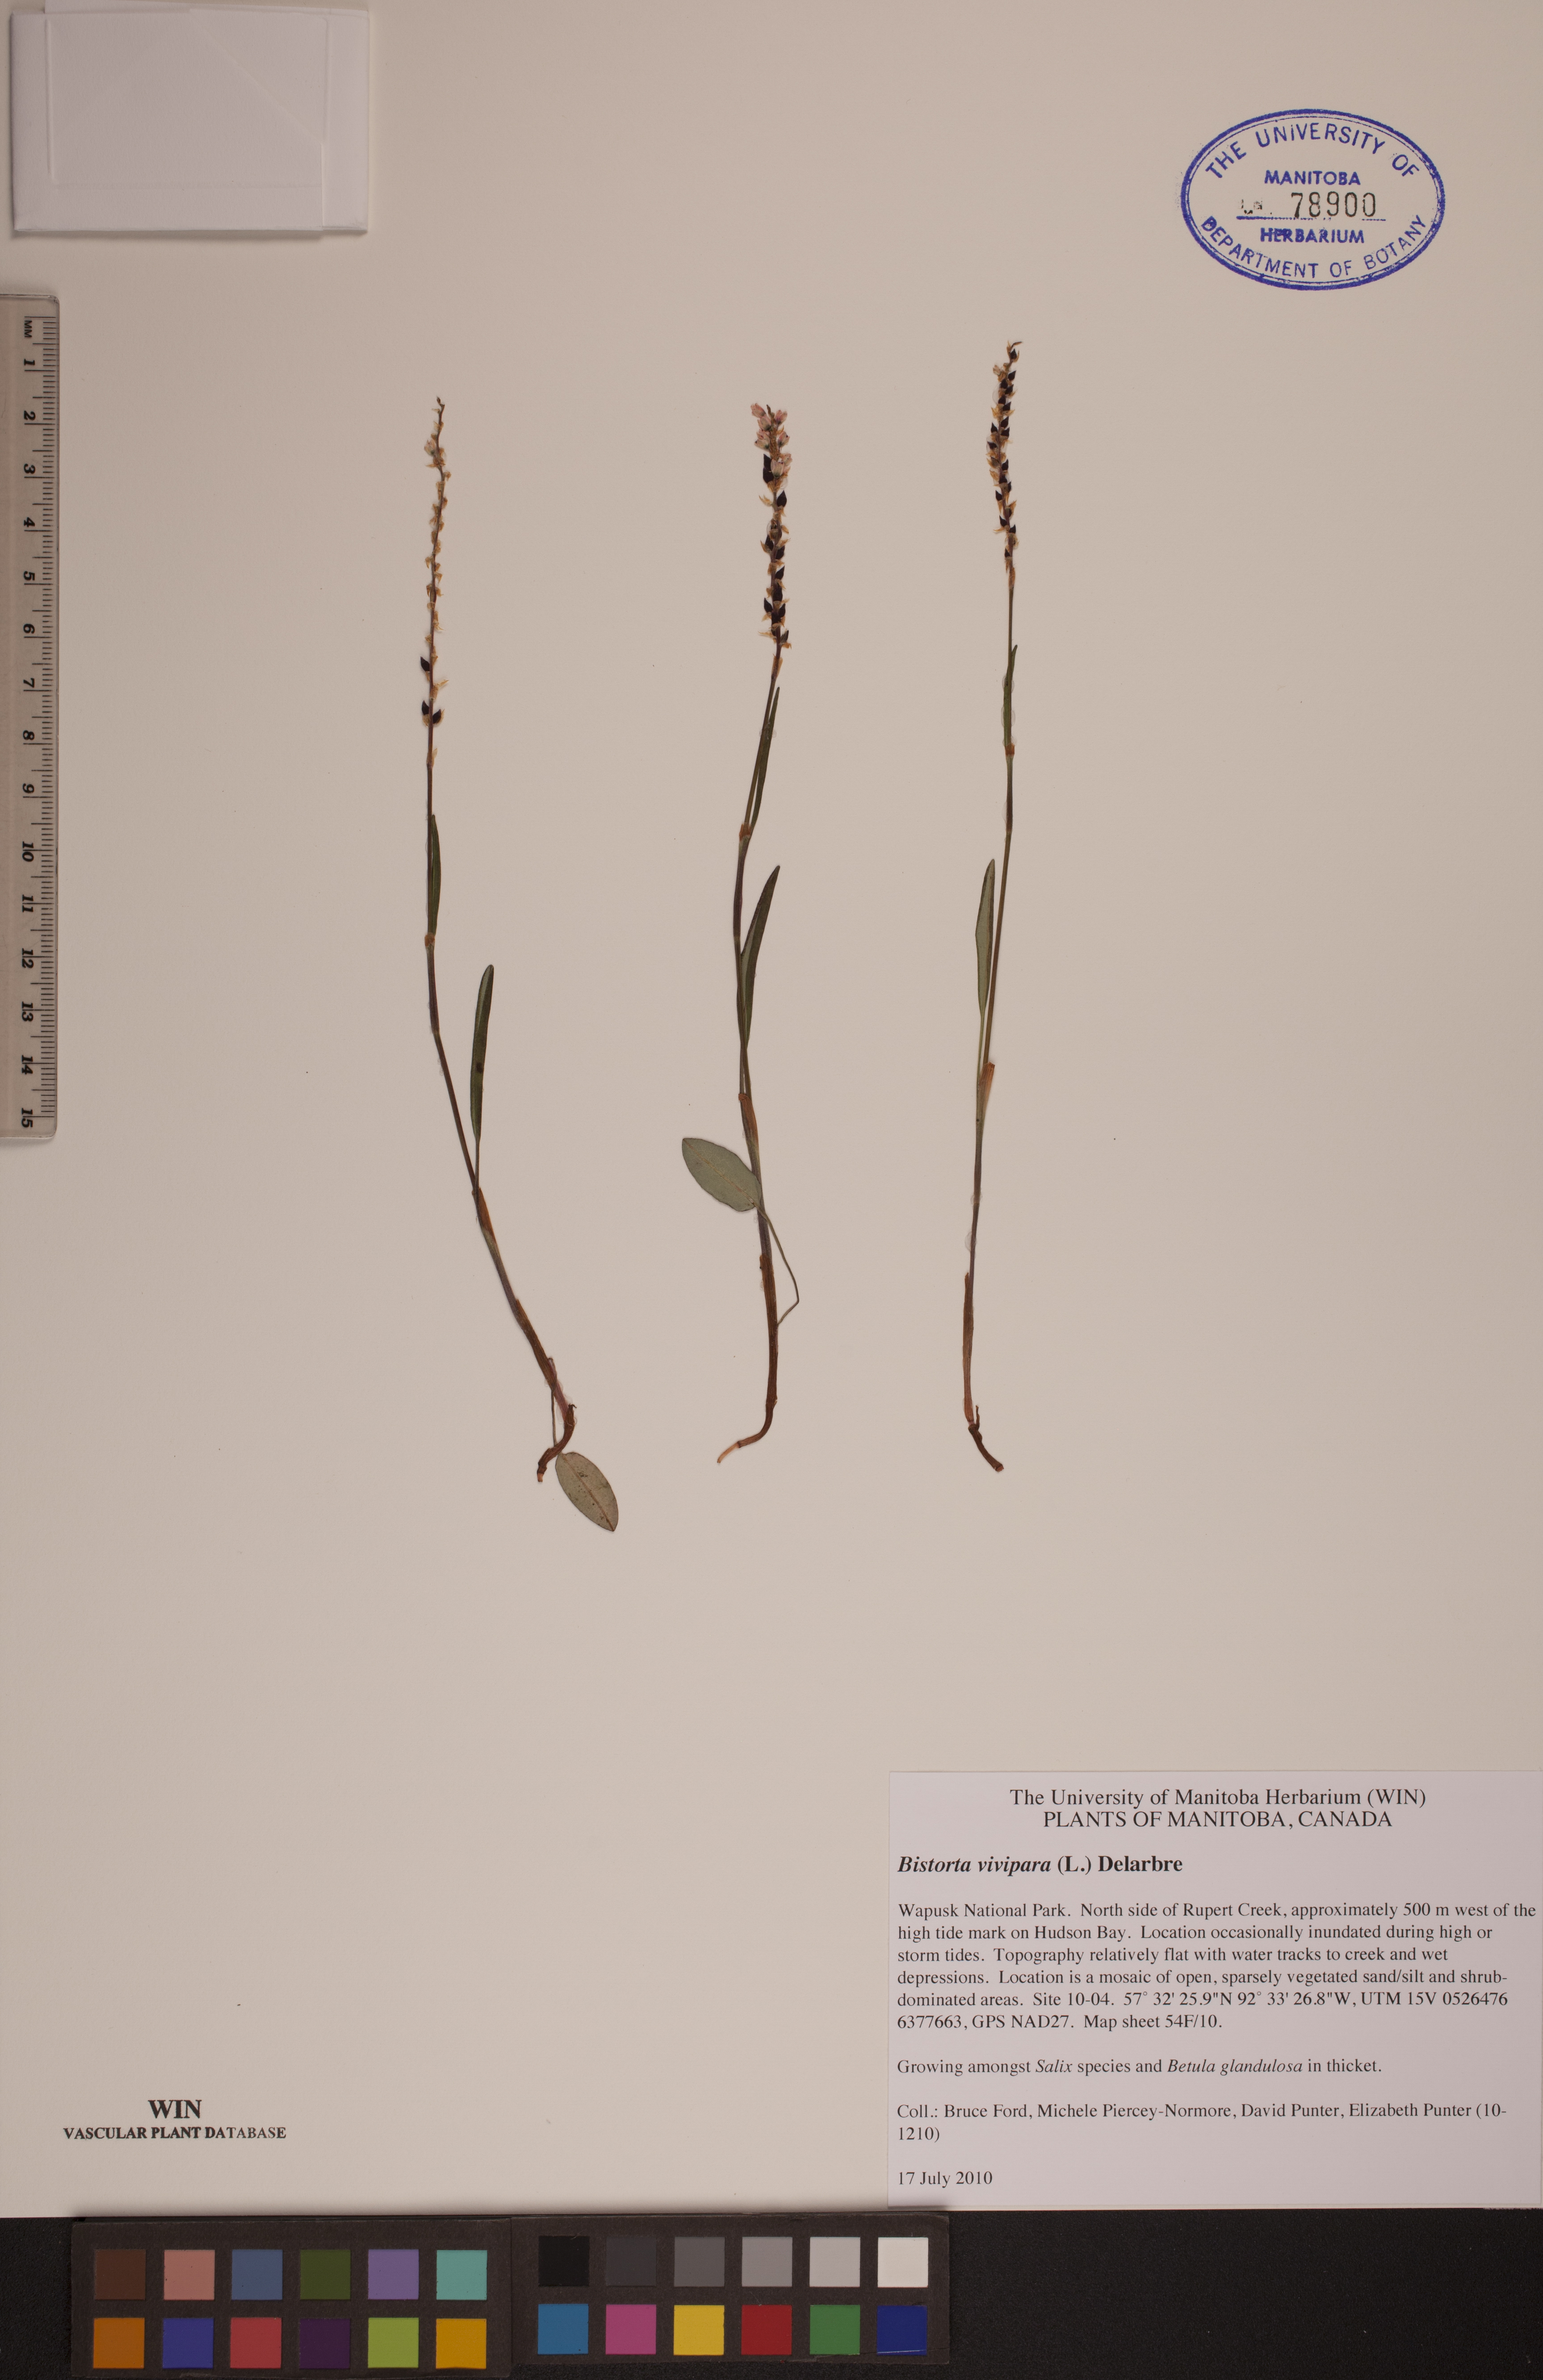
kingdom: Plantae
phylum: Tracheophyta
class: Magnoliopsida
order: Caryophyllales
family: Polygonaceae
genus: Bistorta
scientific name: Bistorta vivipara
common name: Alpine bistort
